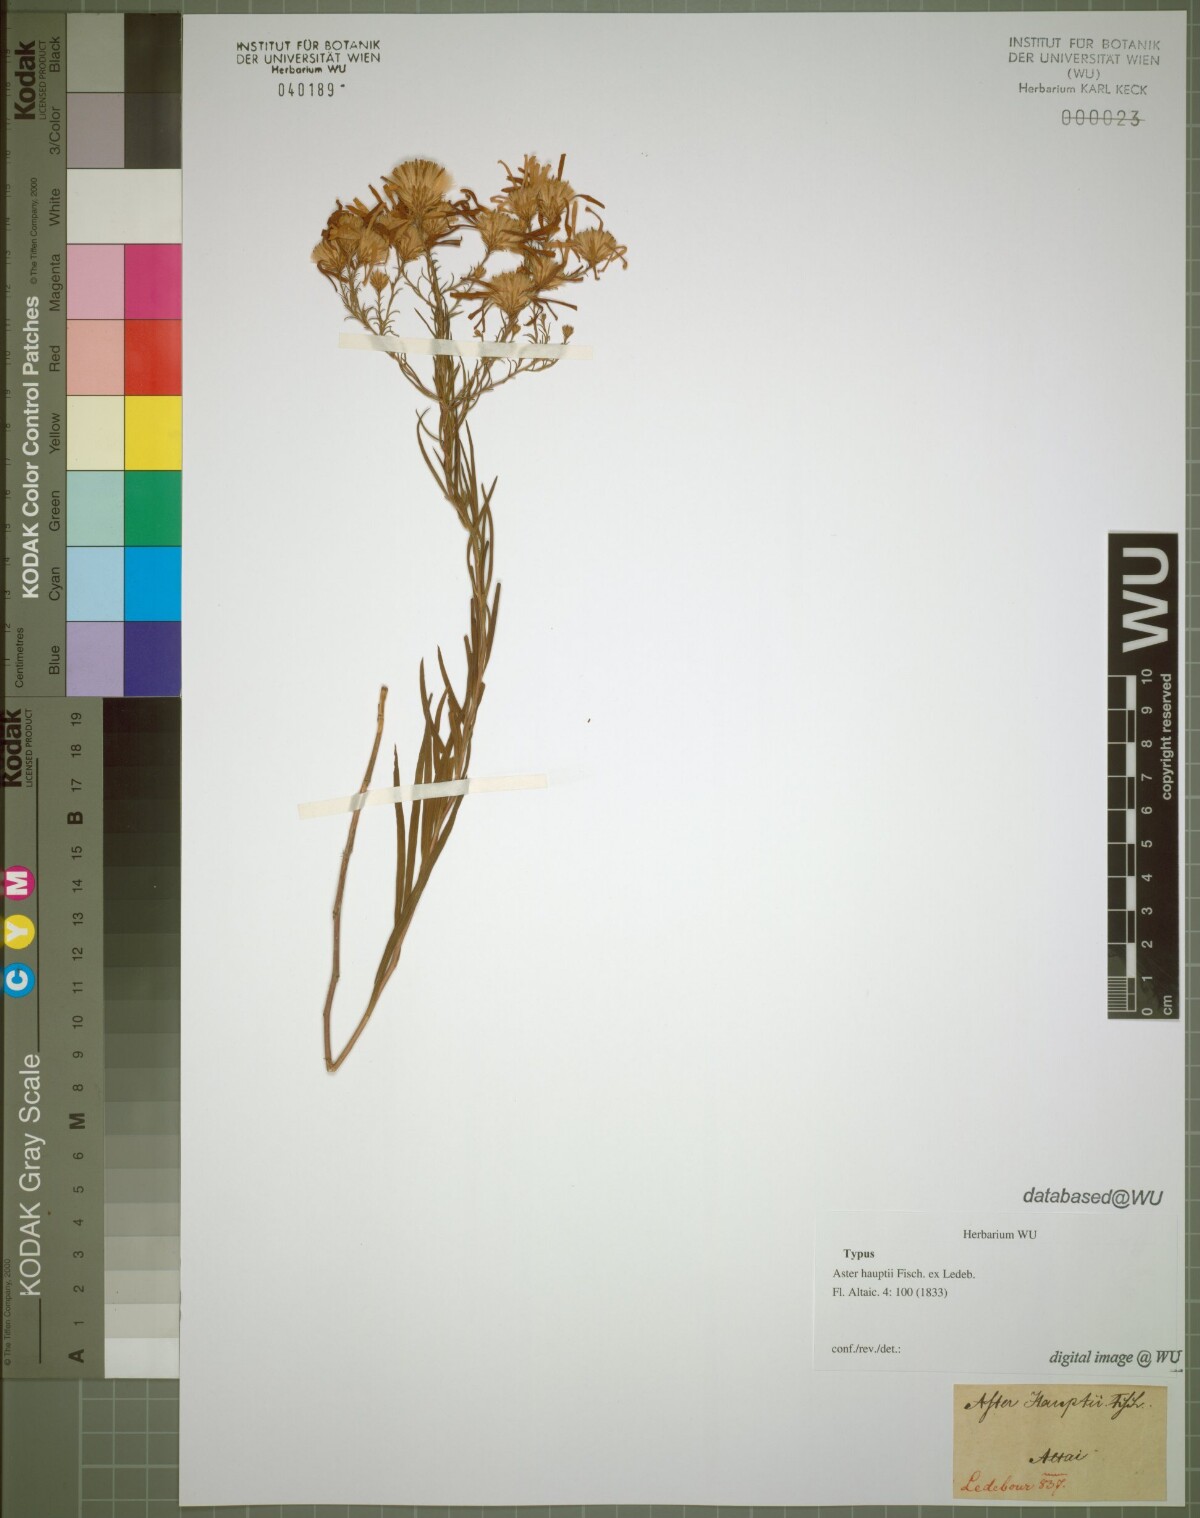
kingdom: Plantae
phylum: Tracheophyta
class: Magnoliopsida
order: Asterales
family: Asteraceae
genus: Galatella
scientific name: Galatella hauptii
